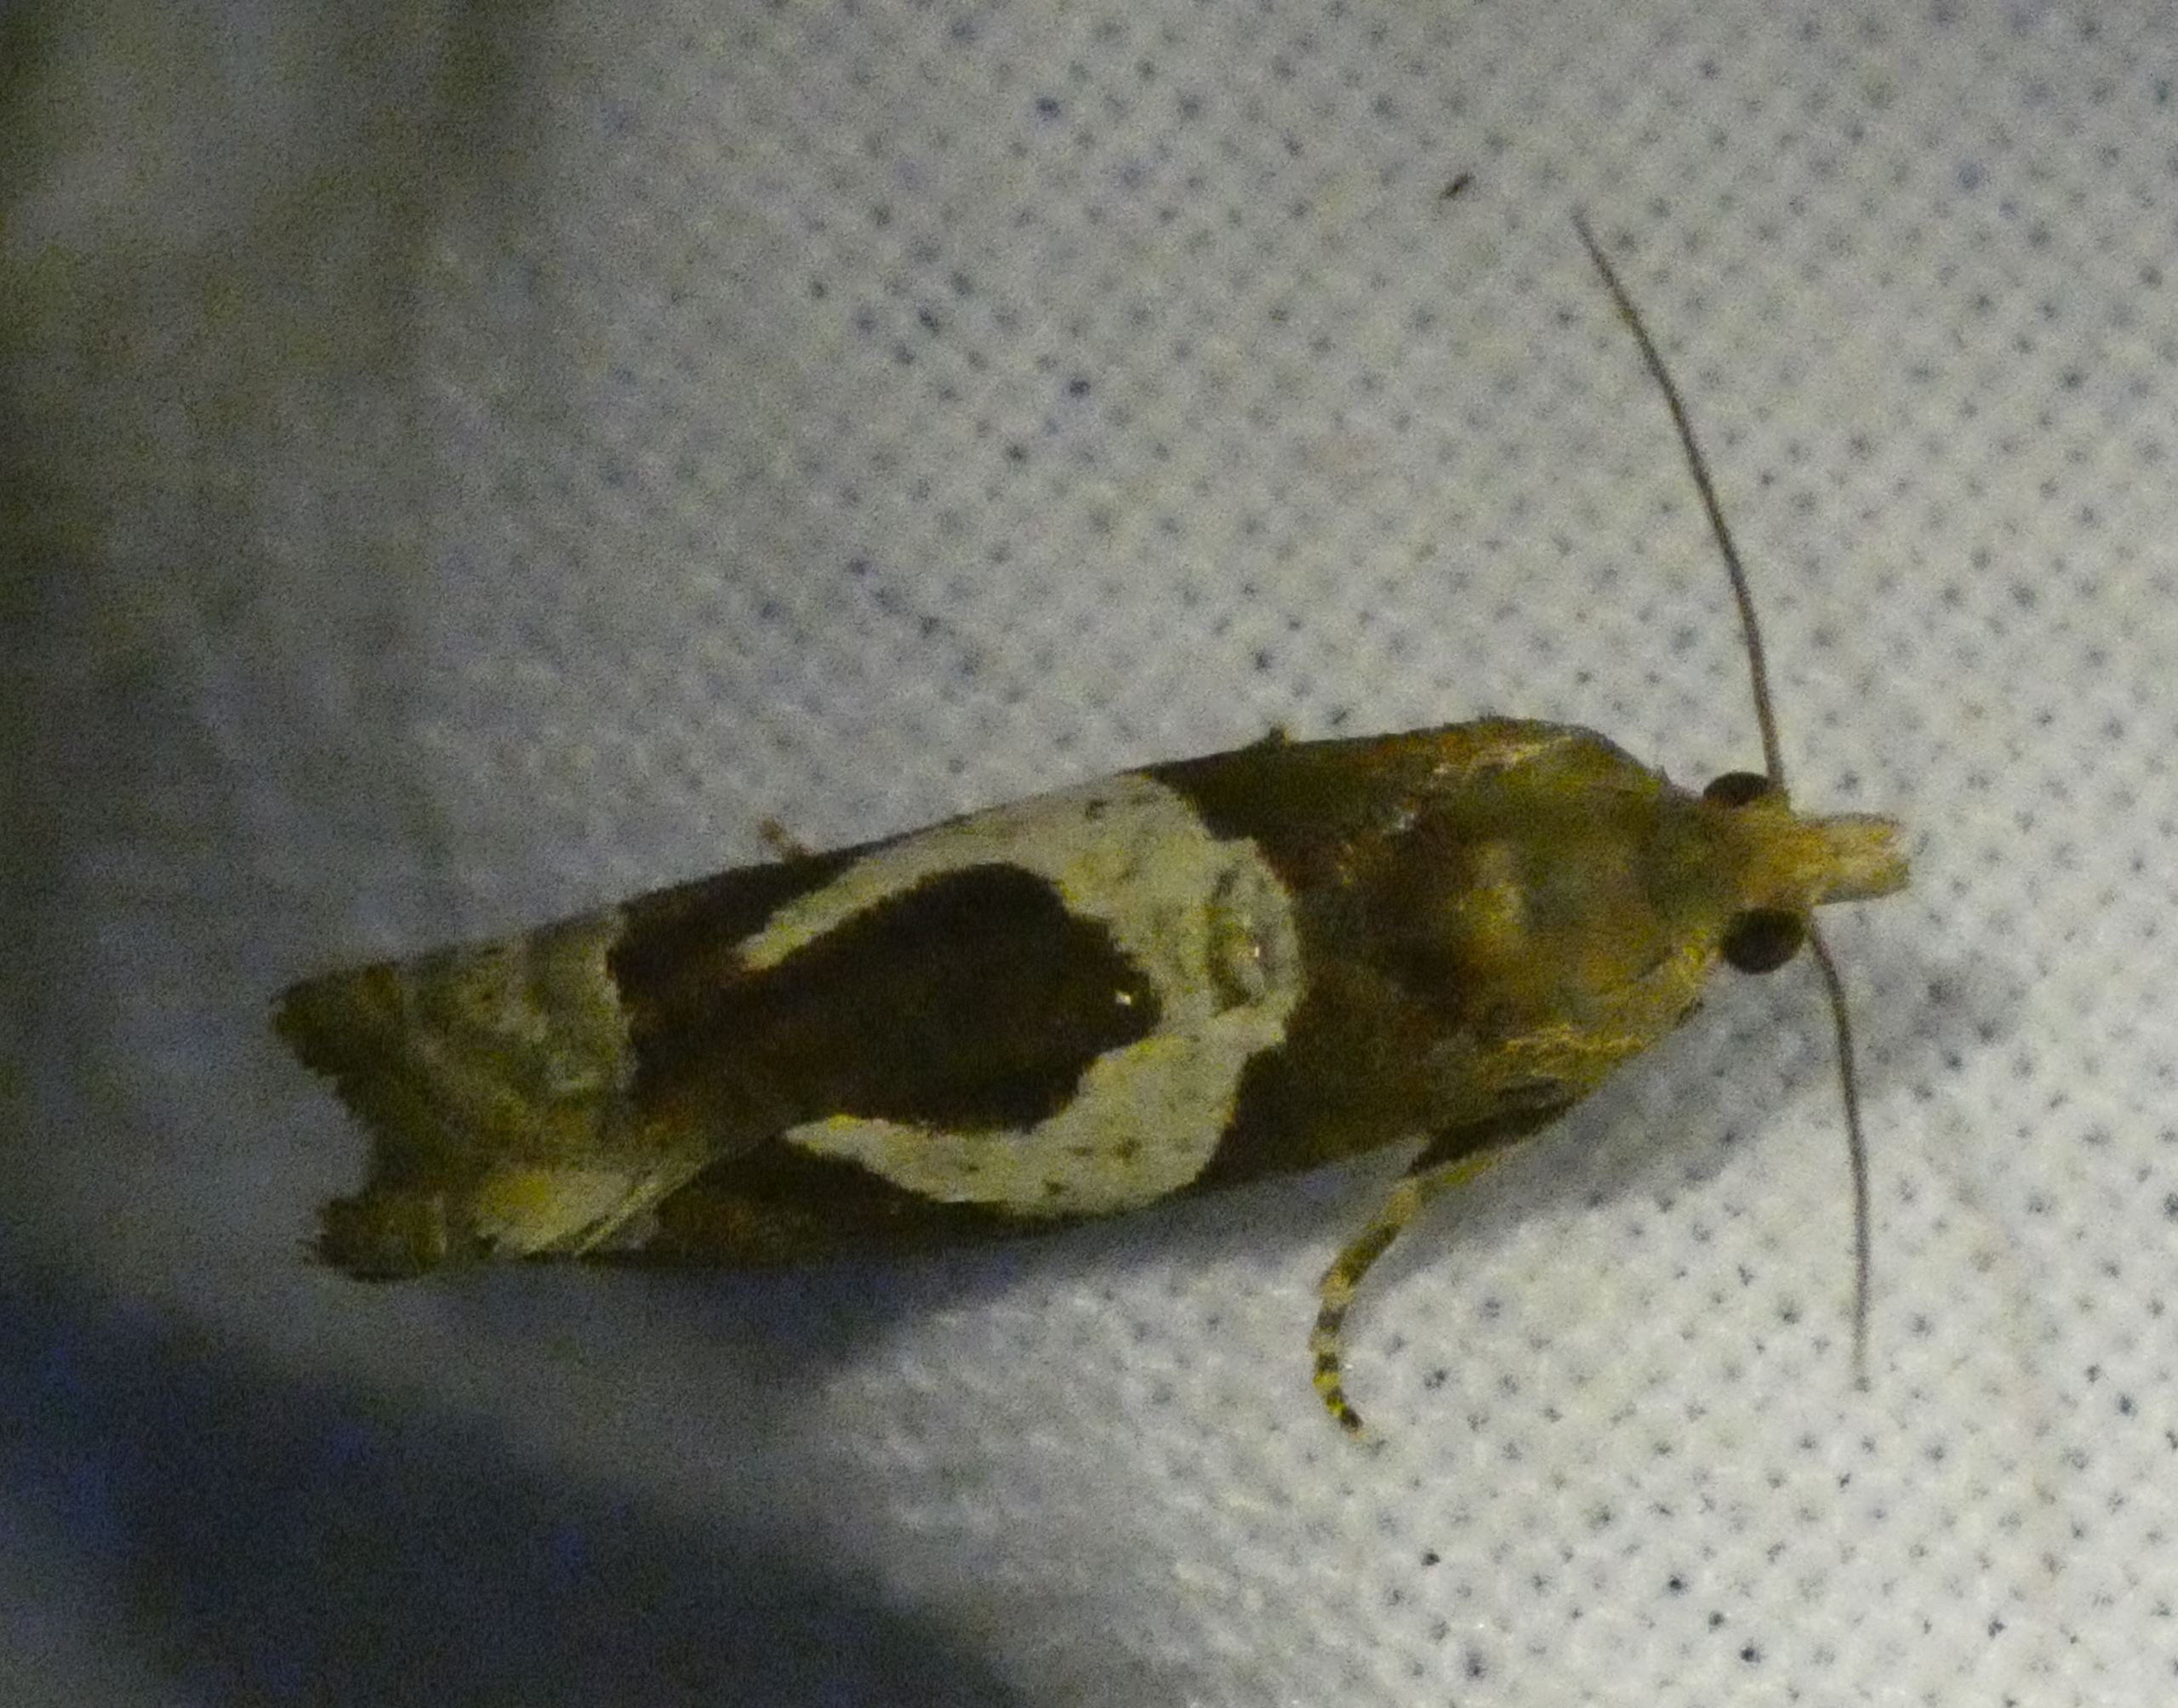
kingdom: Animalia
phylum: Arthropoda
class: Insecta
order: Lepidoptera
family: Tortricidae
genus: Epiblema
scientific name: Epiblema foenella
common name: Gråbynkegallevikler
